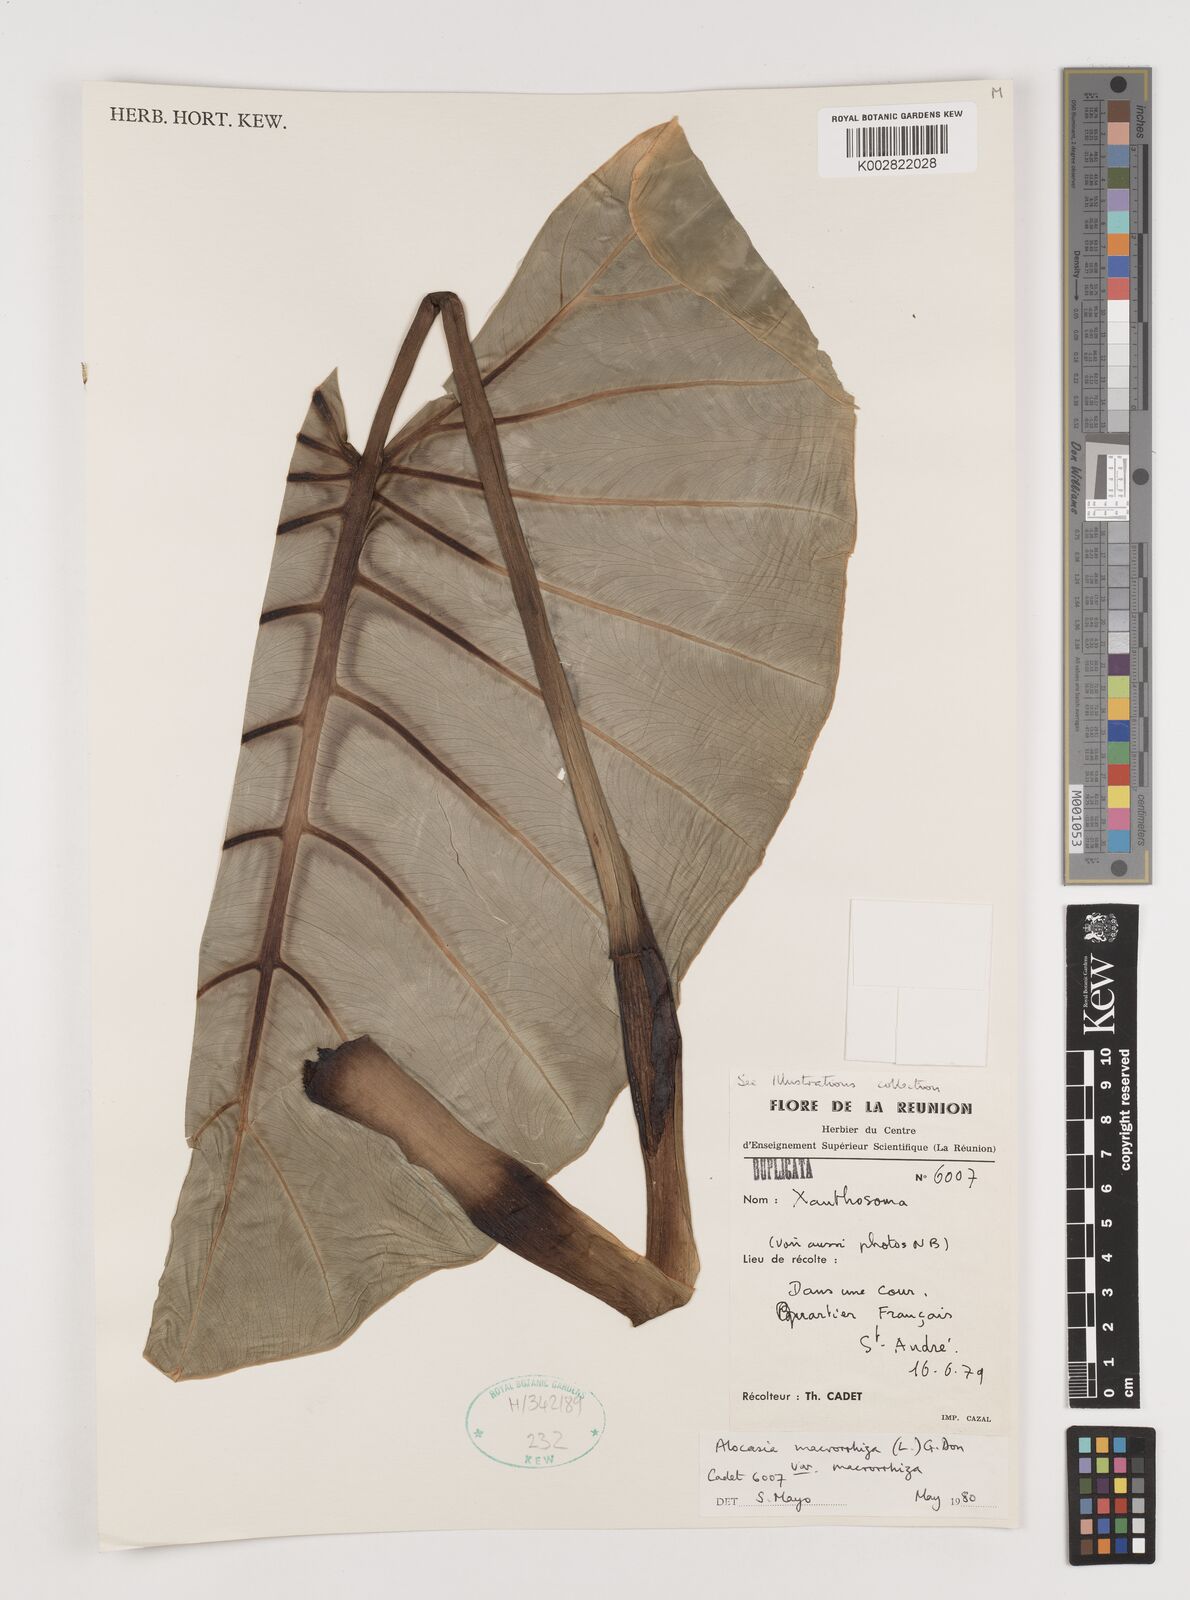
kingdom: Plantae
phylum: Tracheophyta
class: Liliopsida
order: Alismatales
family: Araceae
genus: Alocasia
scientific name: Alocasia macrorrhizos
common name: Giant taro
